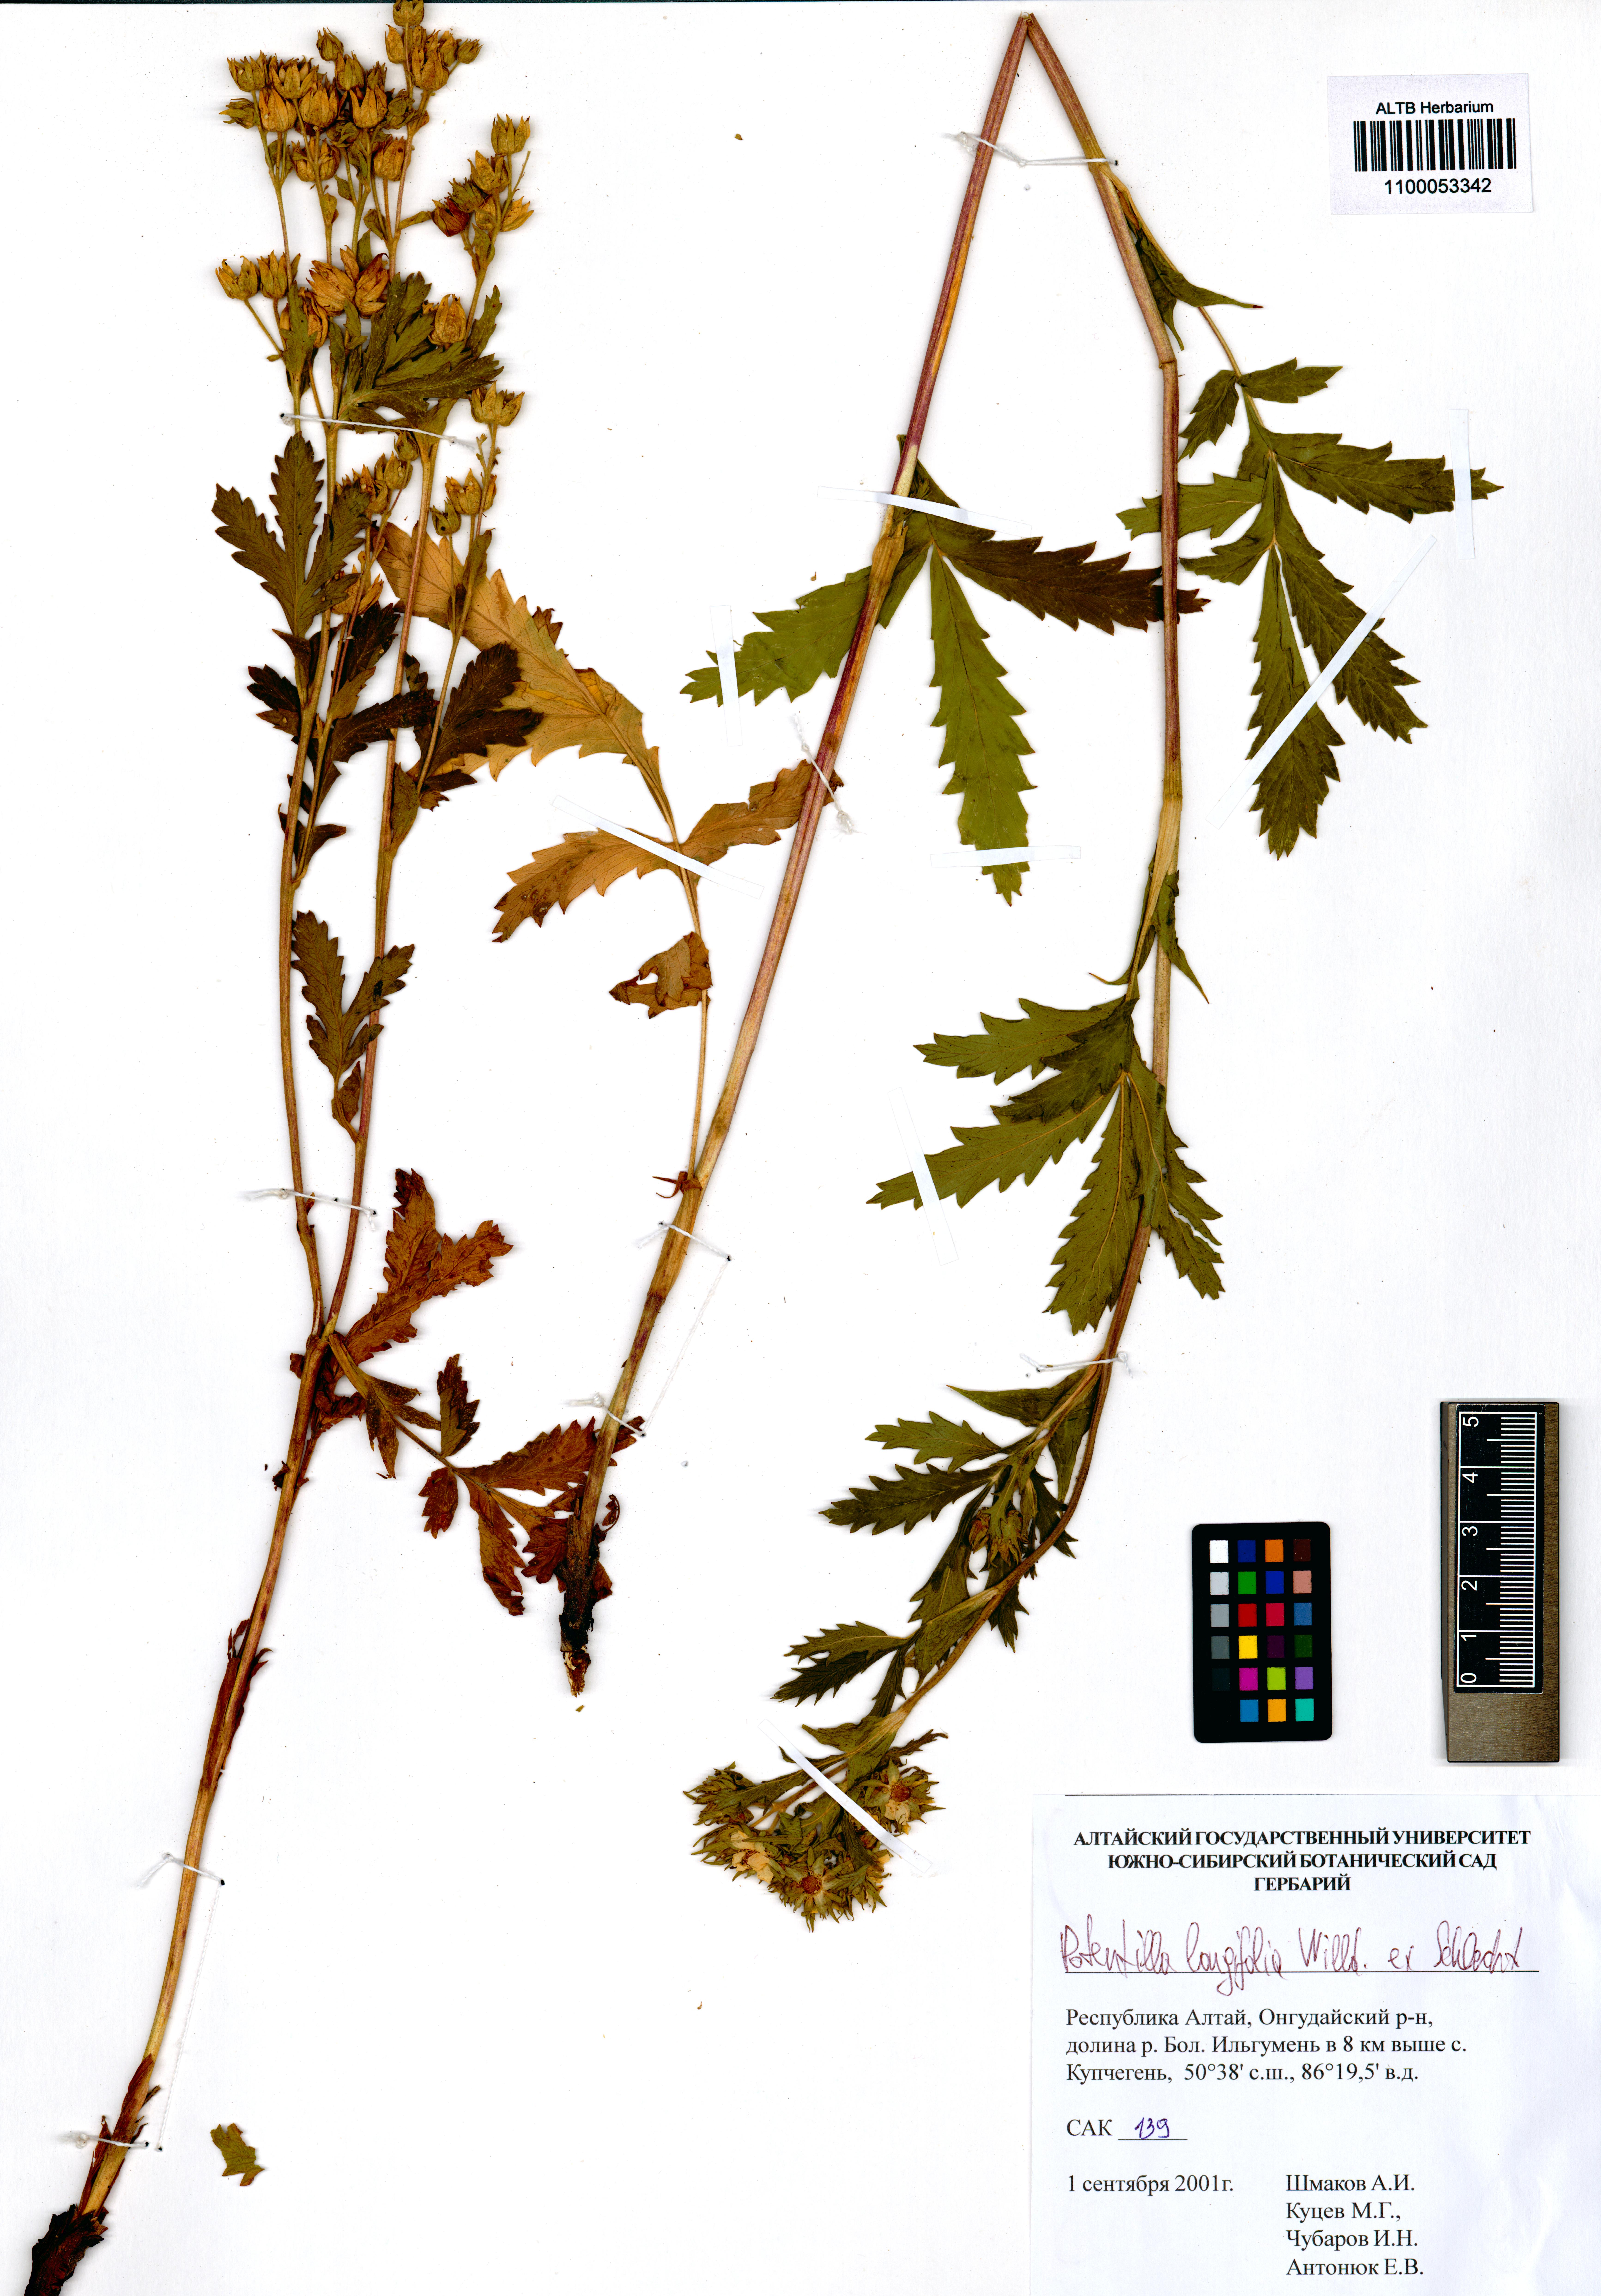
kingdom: Plantae
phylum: Tracheophyta
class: Magnoliopsida
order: Rosales
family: Rosaceae
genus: Potentilla
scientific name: Potentilla longifolia
